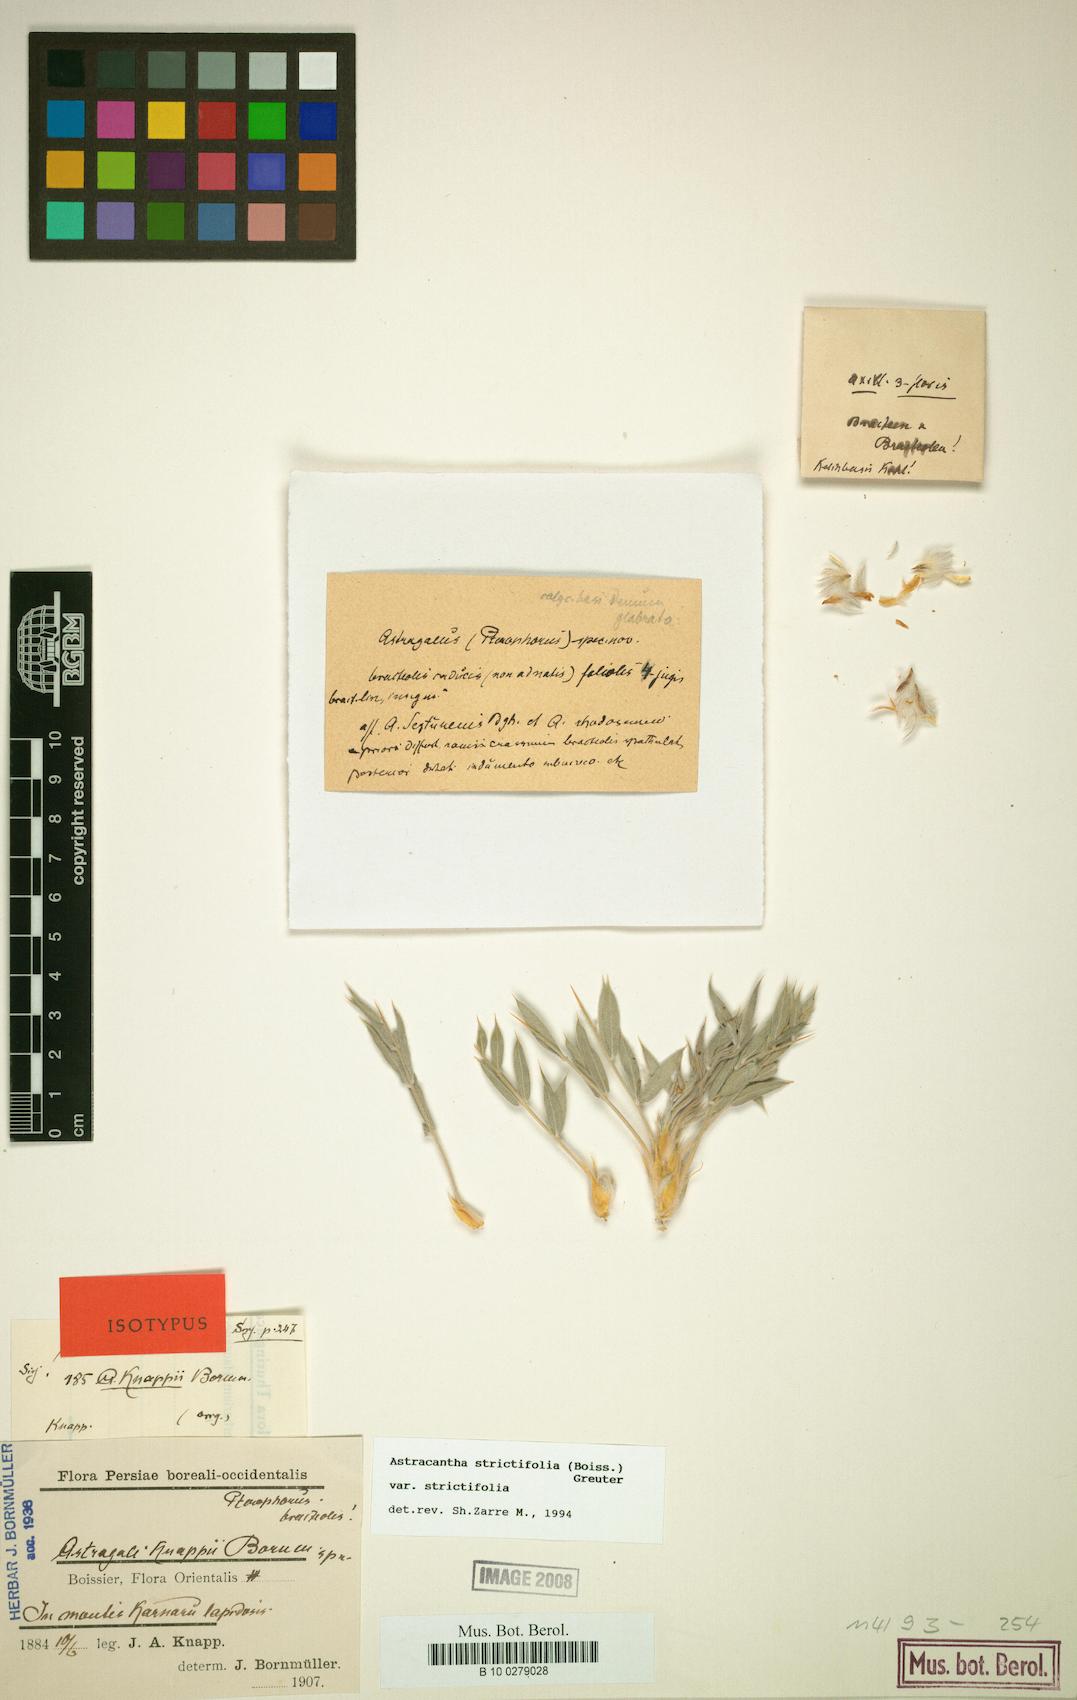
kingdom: Plantae
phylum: Tracheophyta
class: Magnoliopsida
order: Fabales
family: Fabaceae
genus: Astragalus
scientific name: Astragalus strictifolius
